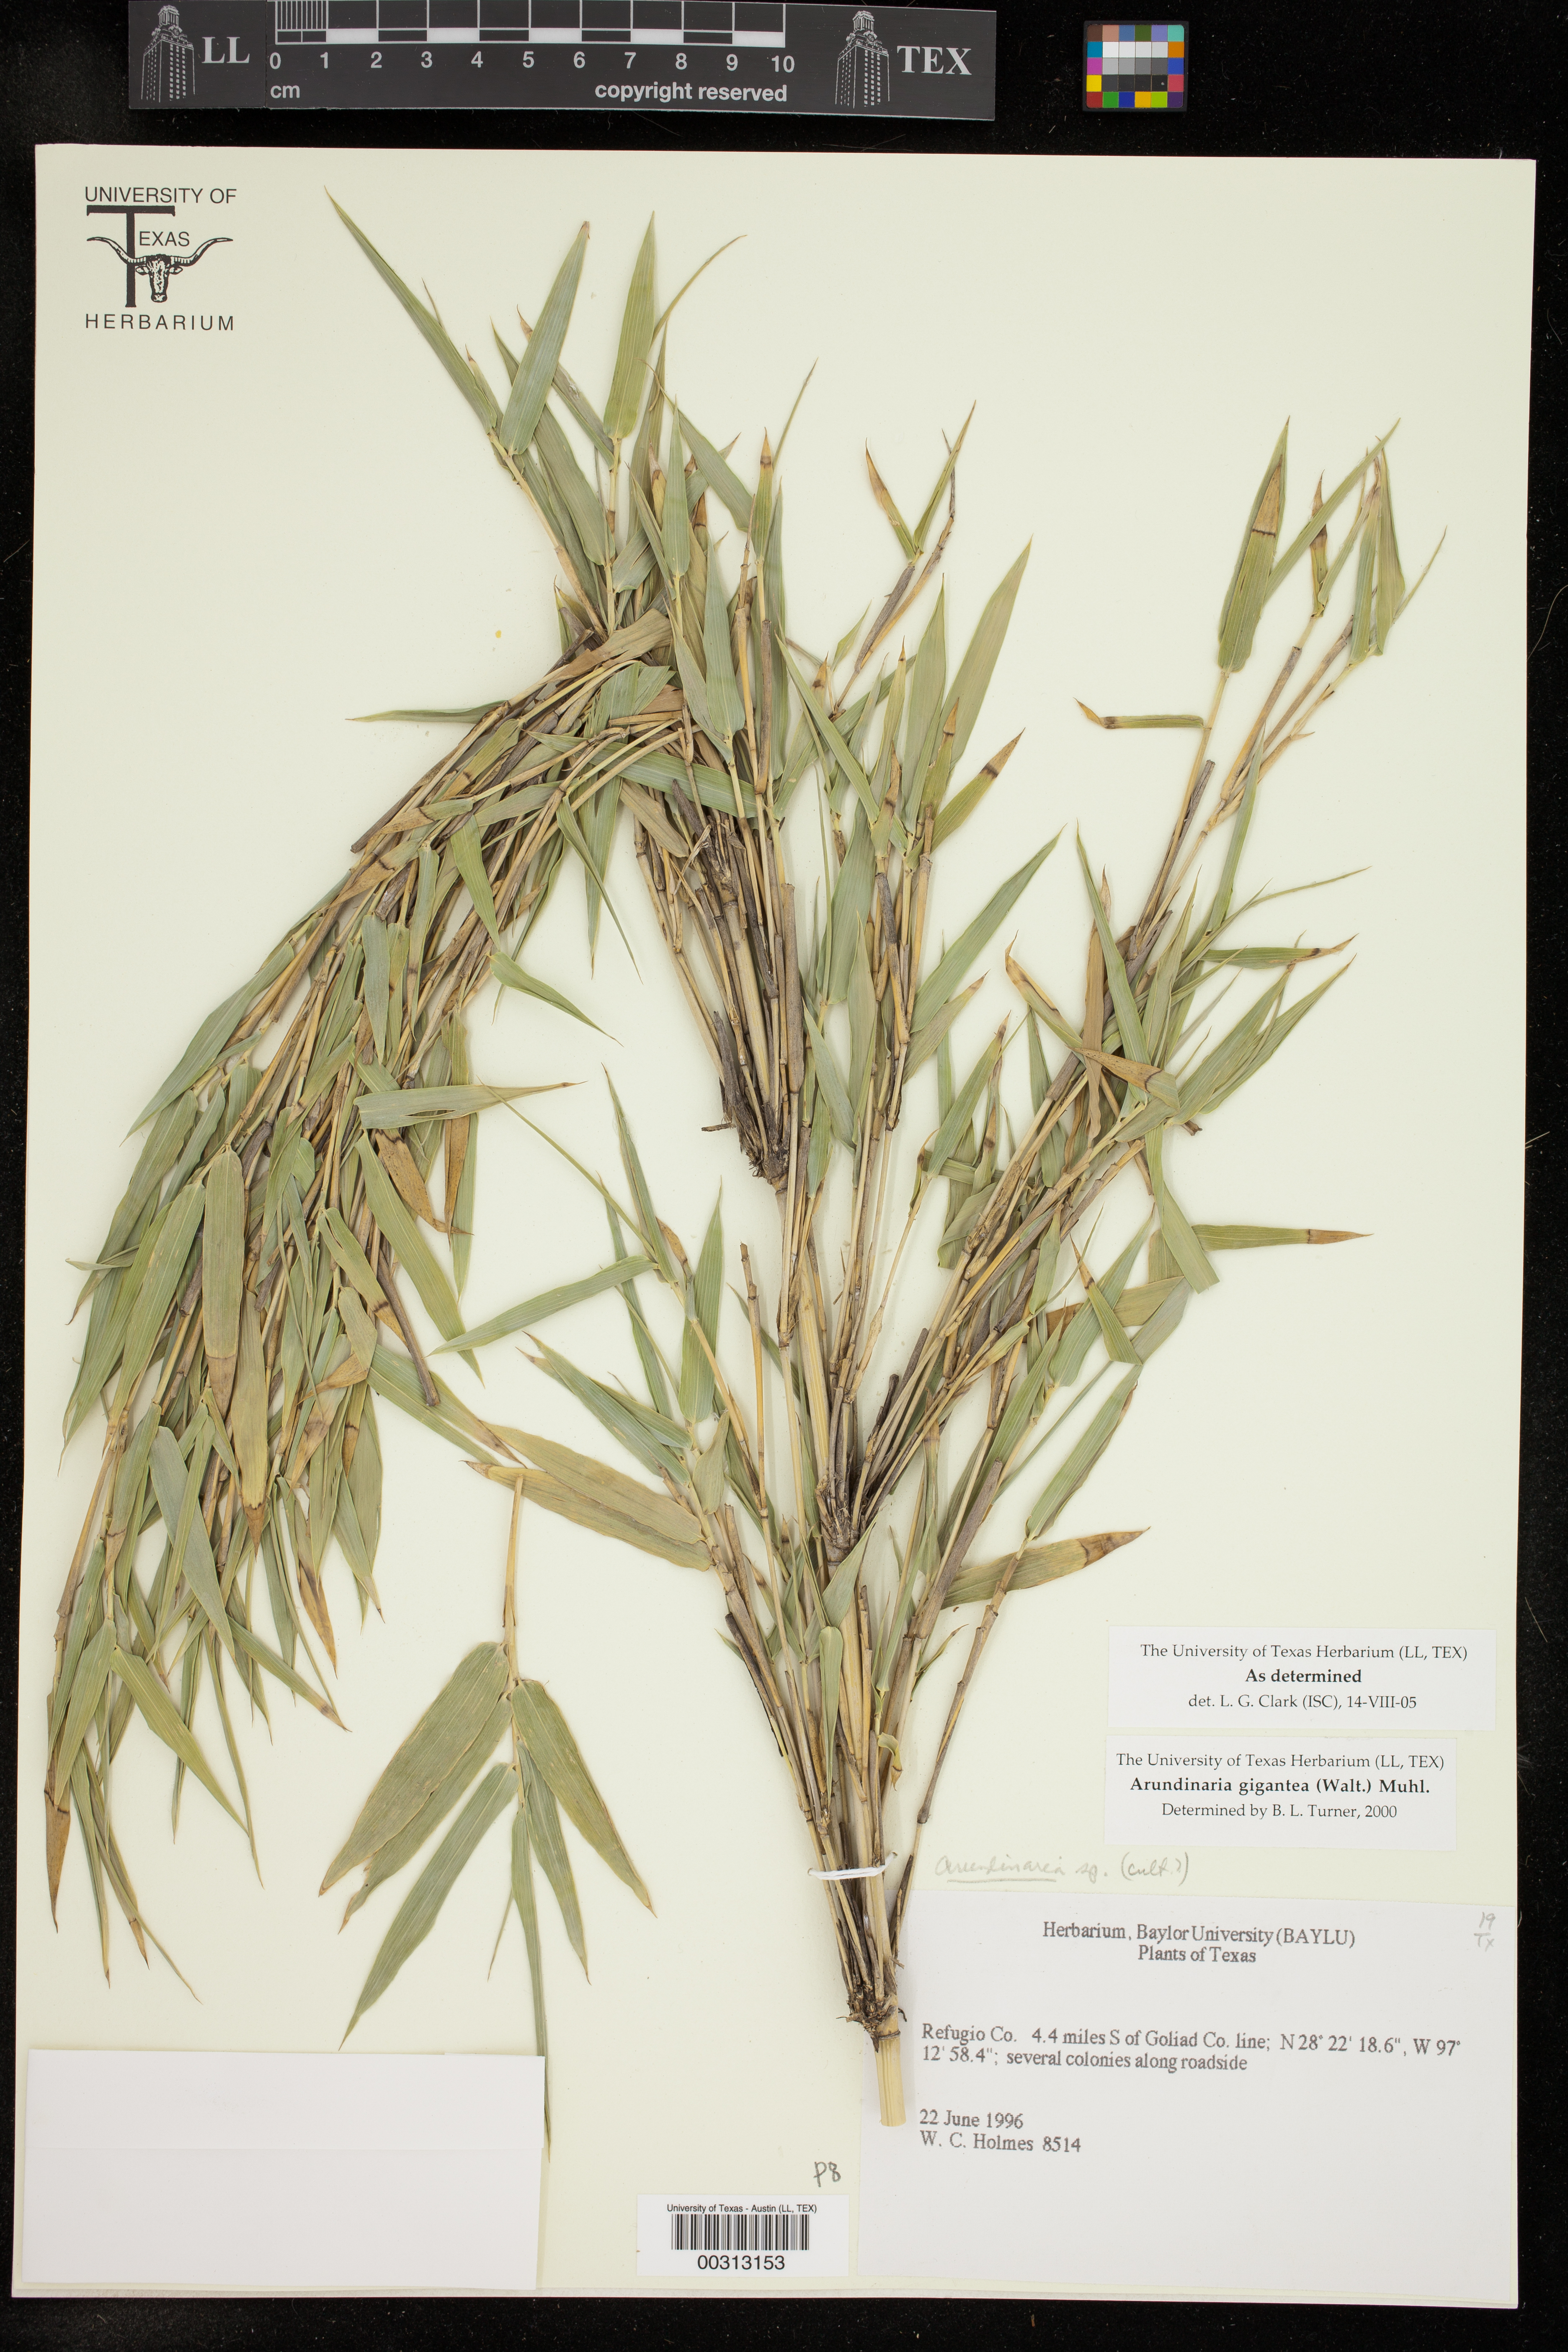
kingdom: Plantae
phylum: Tracheophyta
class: Liliopsida
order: Poales
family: Poaceae
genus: Arundinaria
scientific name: Arundinaria gigantea
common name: Giant cane
